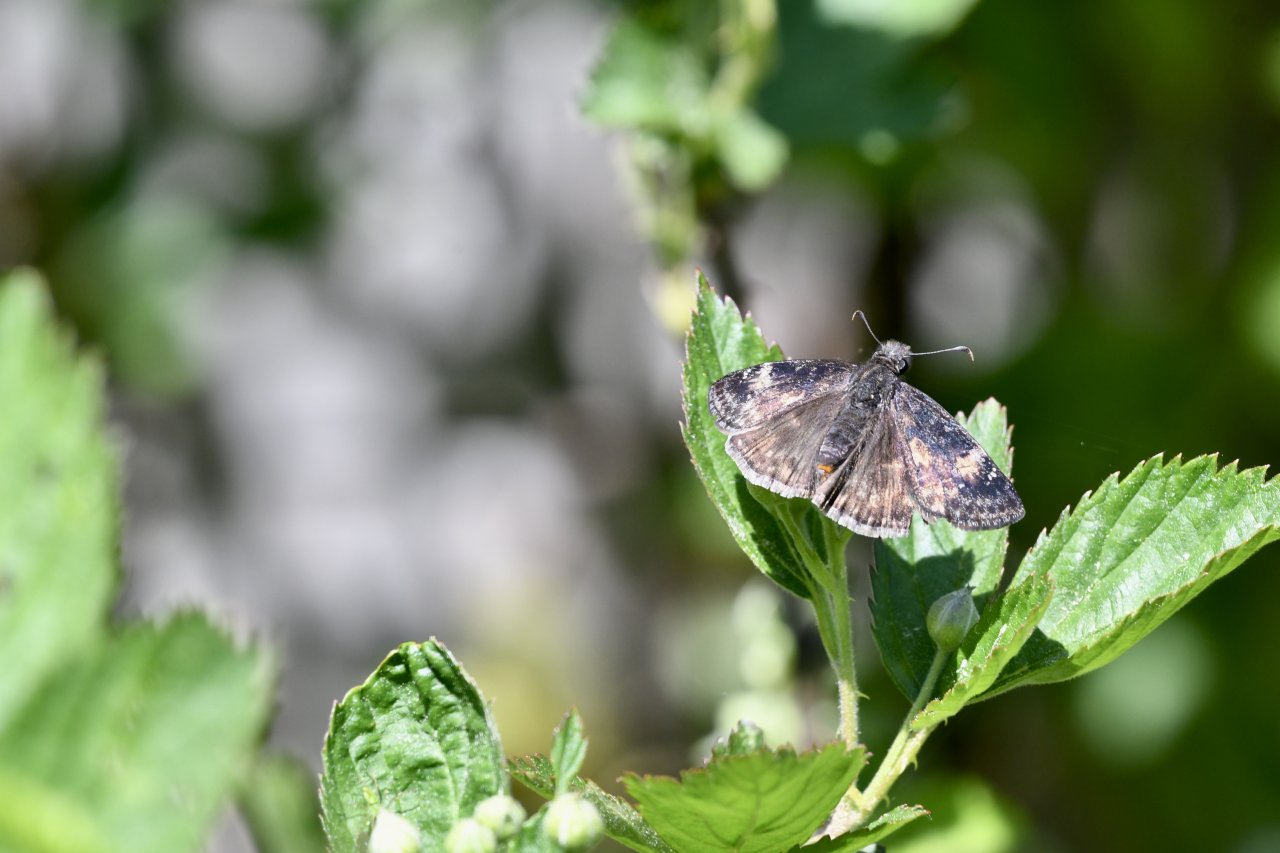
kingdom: Animalia
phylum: Arthropoda
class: Insecta
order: Lepidoptera
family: Hesperiidae
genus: Gesta
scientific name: Gesta
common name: Wild Indigo Duskywing
